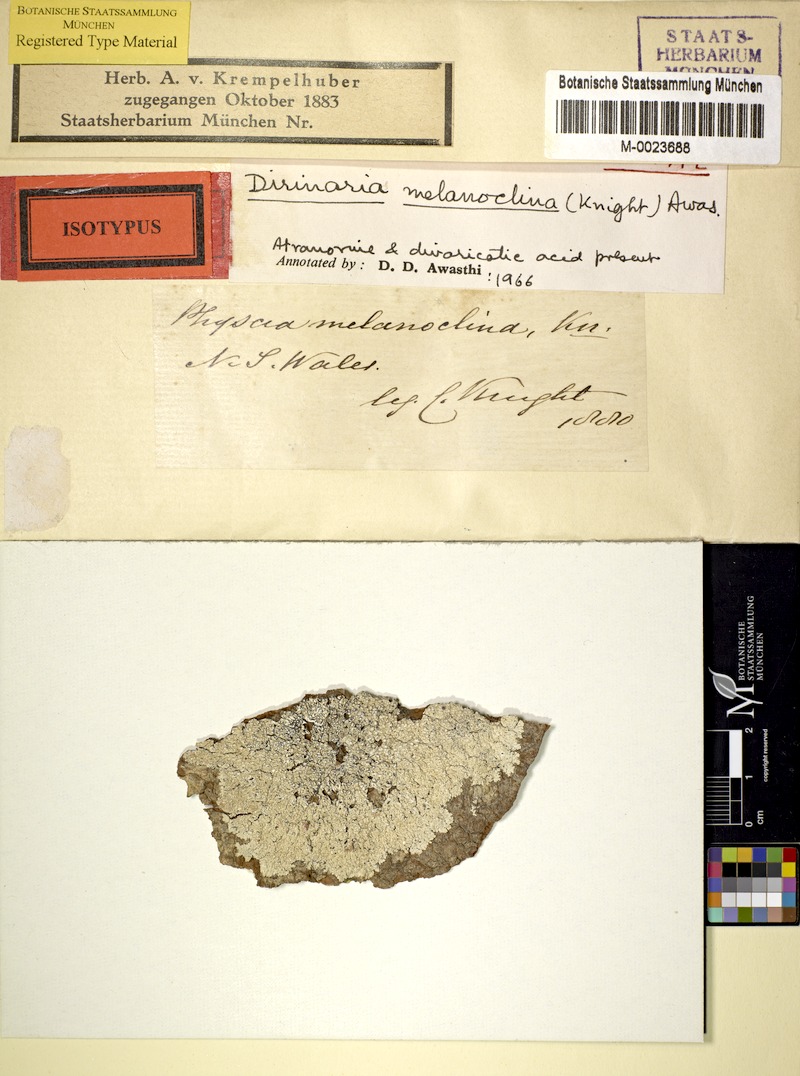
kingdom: Fungi
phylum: Ascomycota
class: Lecanoromycetes
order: Caliciales
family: Caliciaceae
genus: Dirinaria
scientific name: Dirinaria melanoclina
